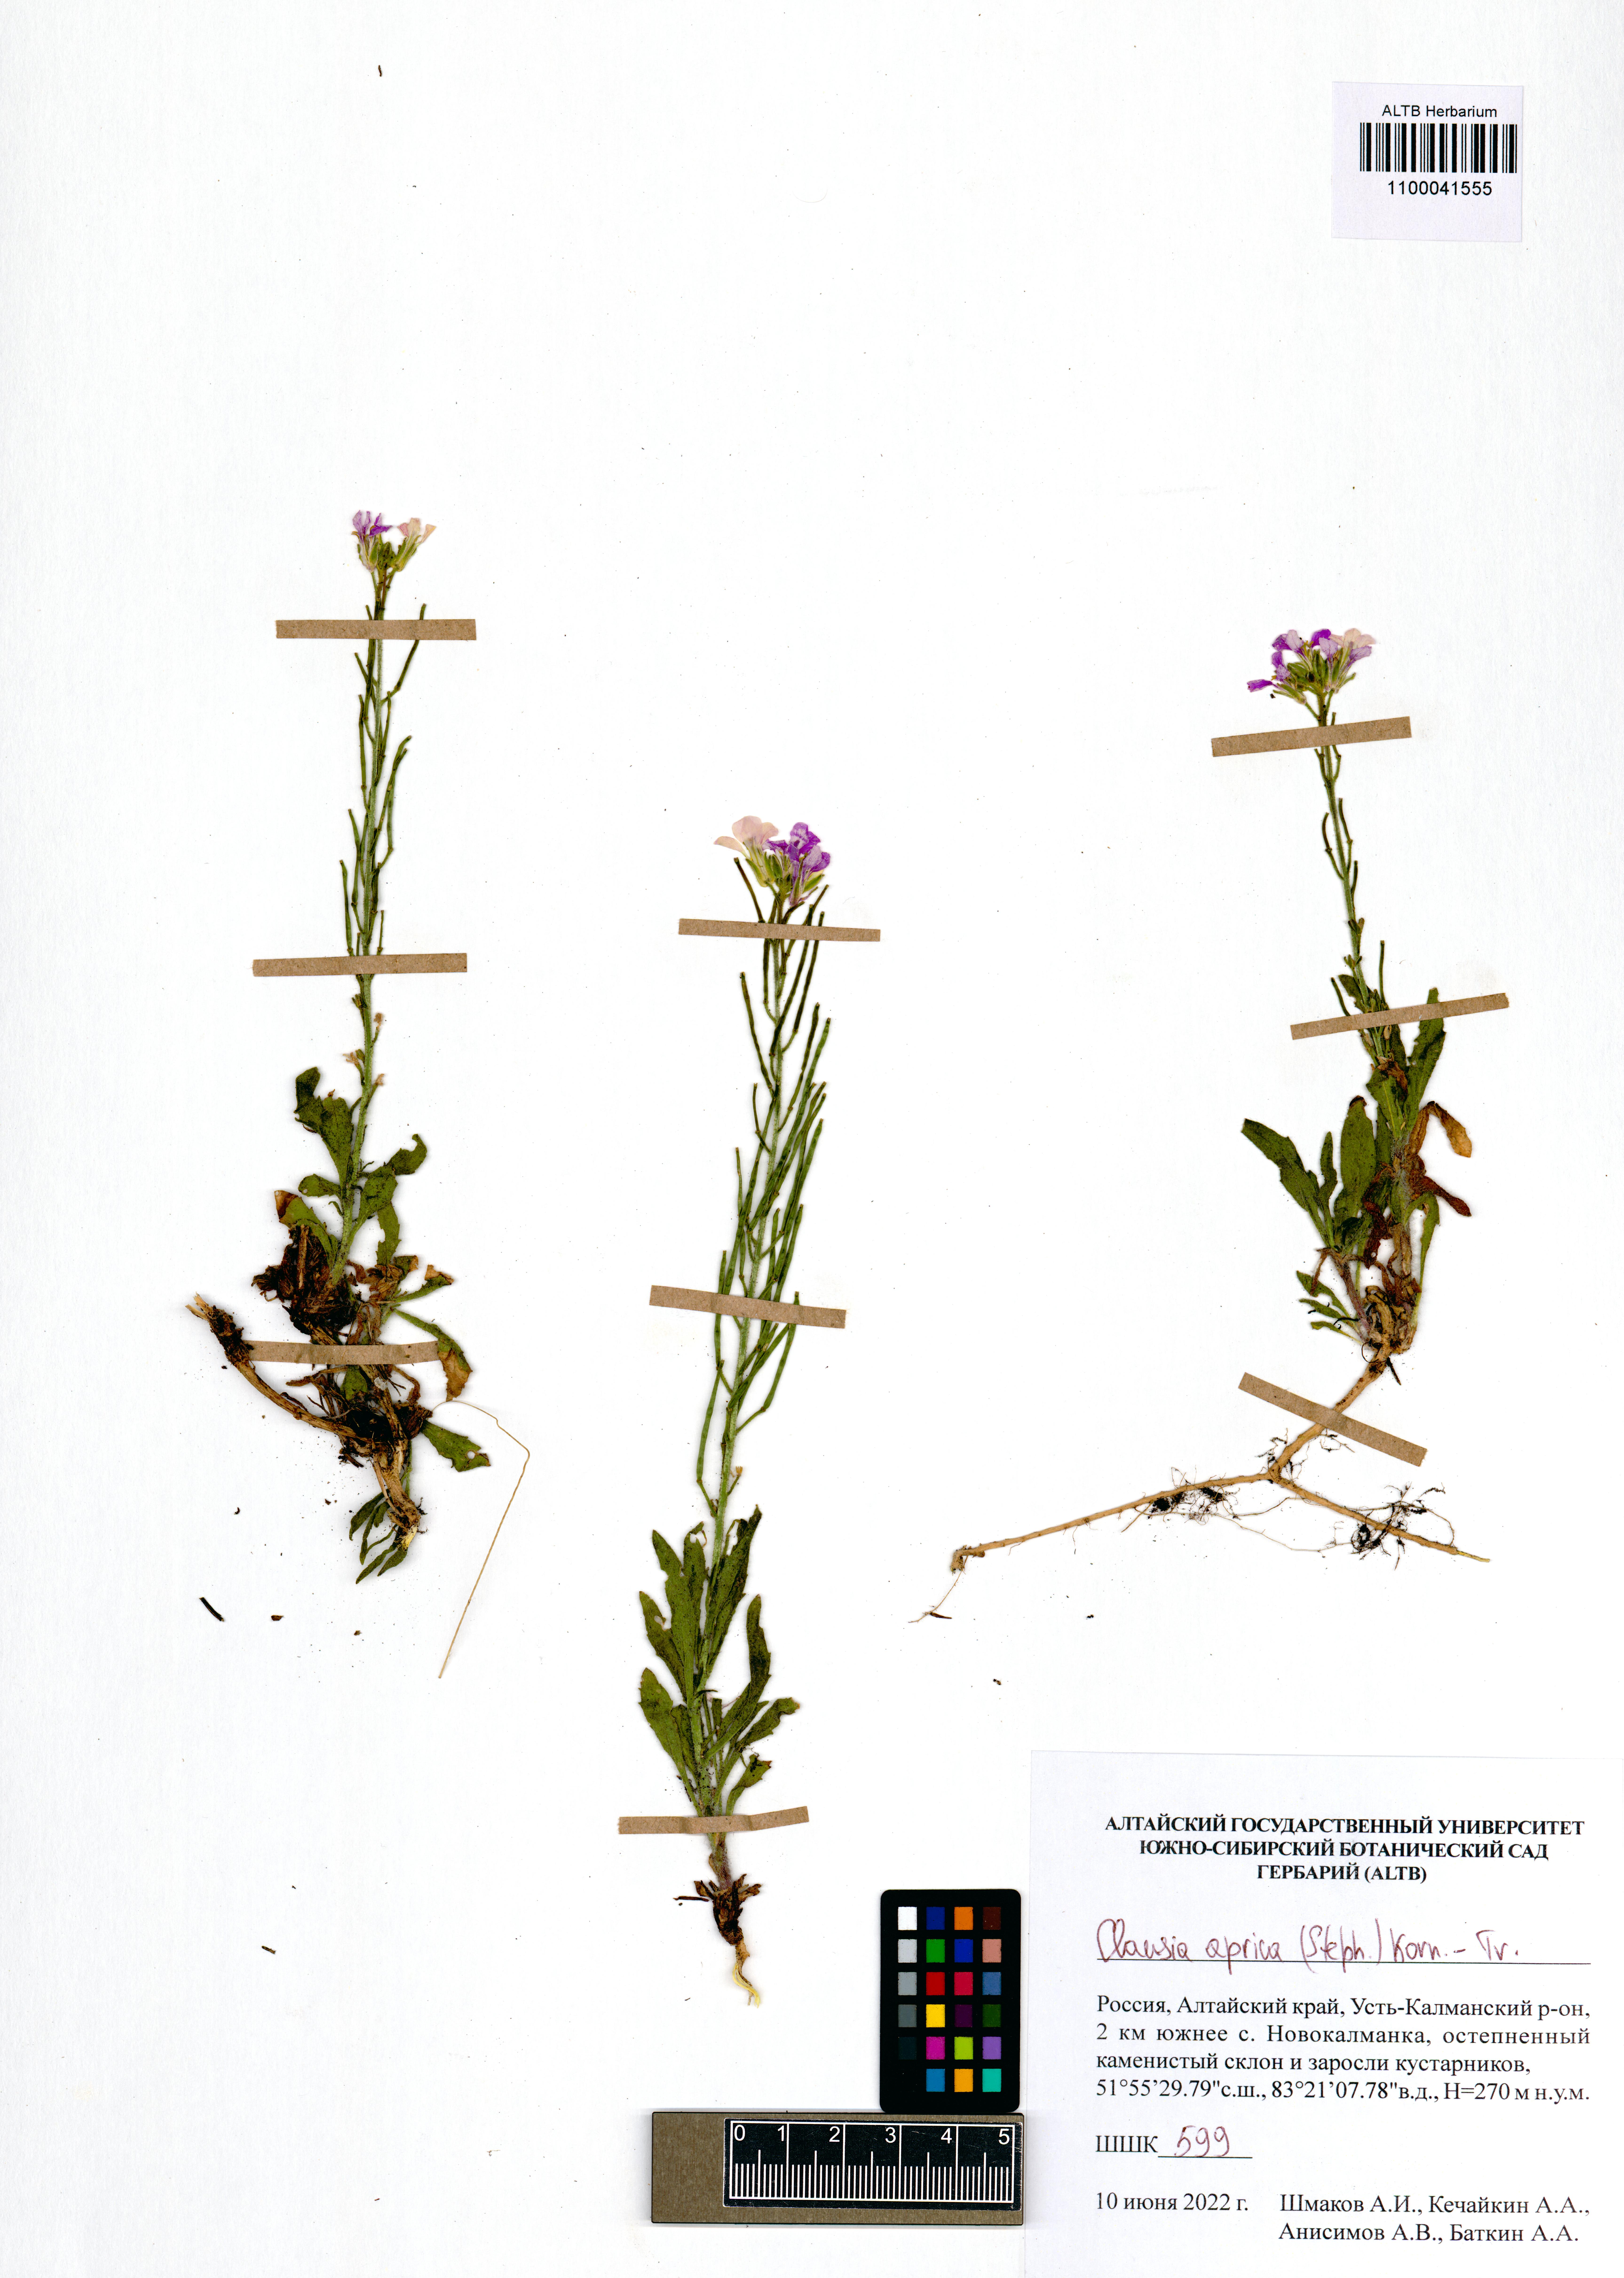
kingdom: Plantae
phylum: Tracheophyta
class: Magnoliopsida
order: Brassicales
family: Brassicaceae
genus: Clausia
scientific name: Clausia aprica
